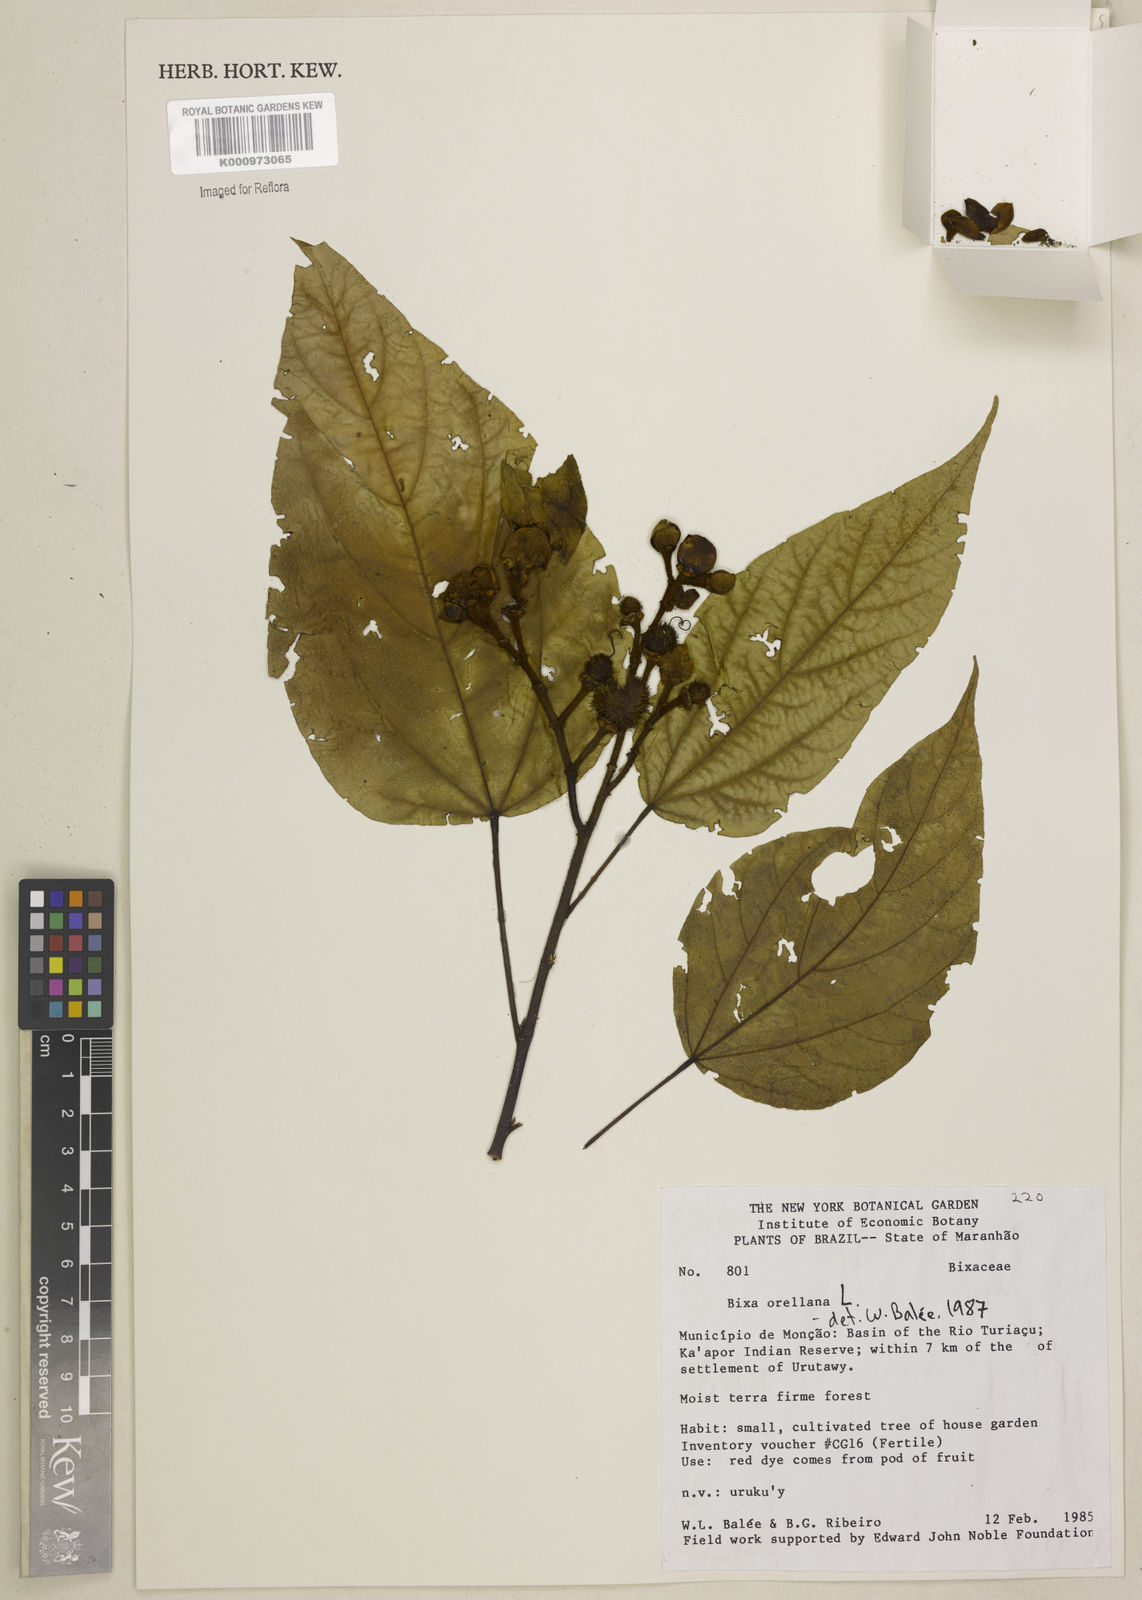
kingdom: Plantae
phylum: Tracheophyta
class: Magnoliopsida
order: Malvales
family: Bixaceae
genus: Bixa
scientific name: Bixa orellana
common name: Lipsticktree
